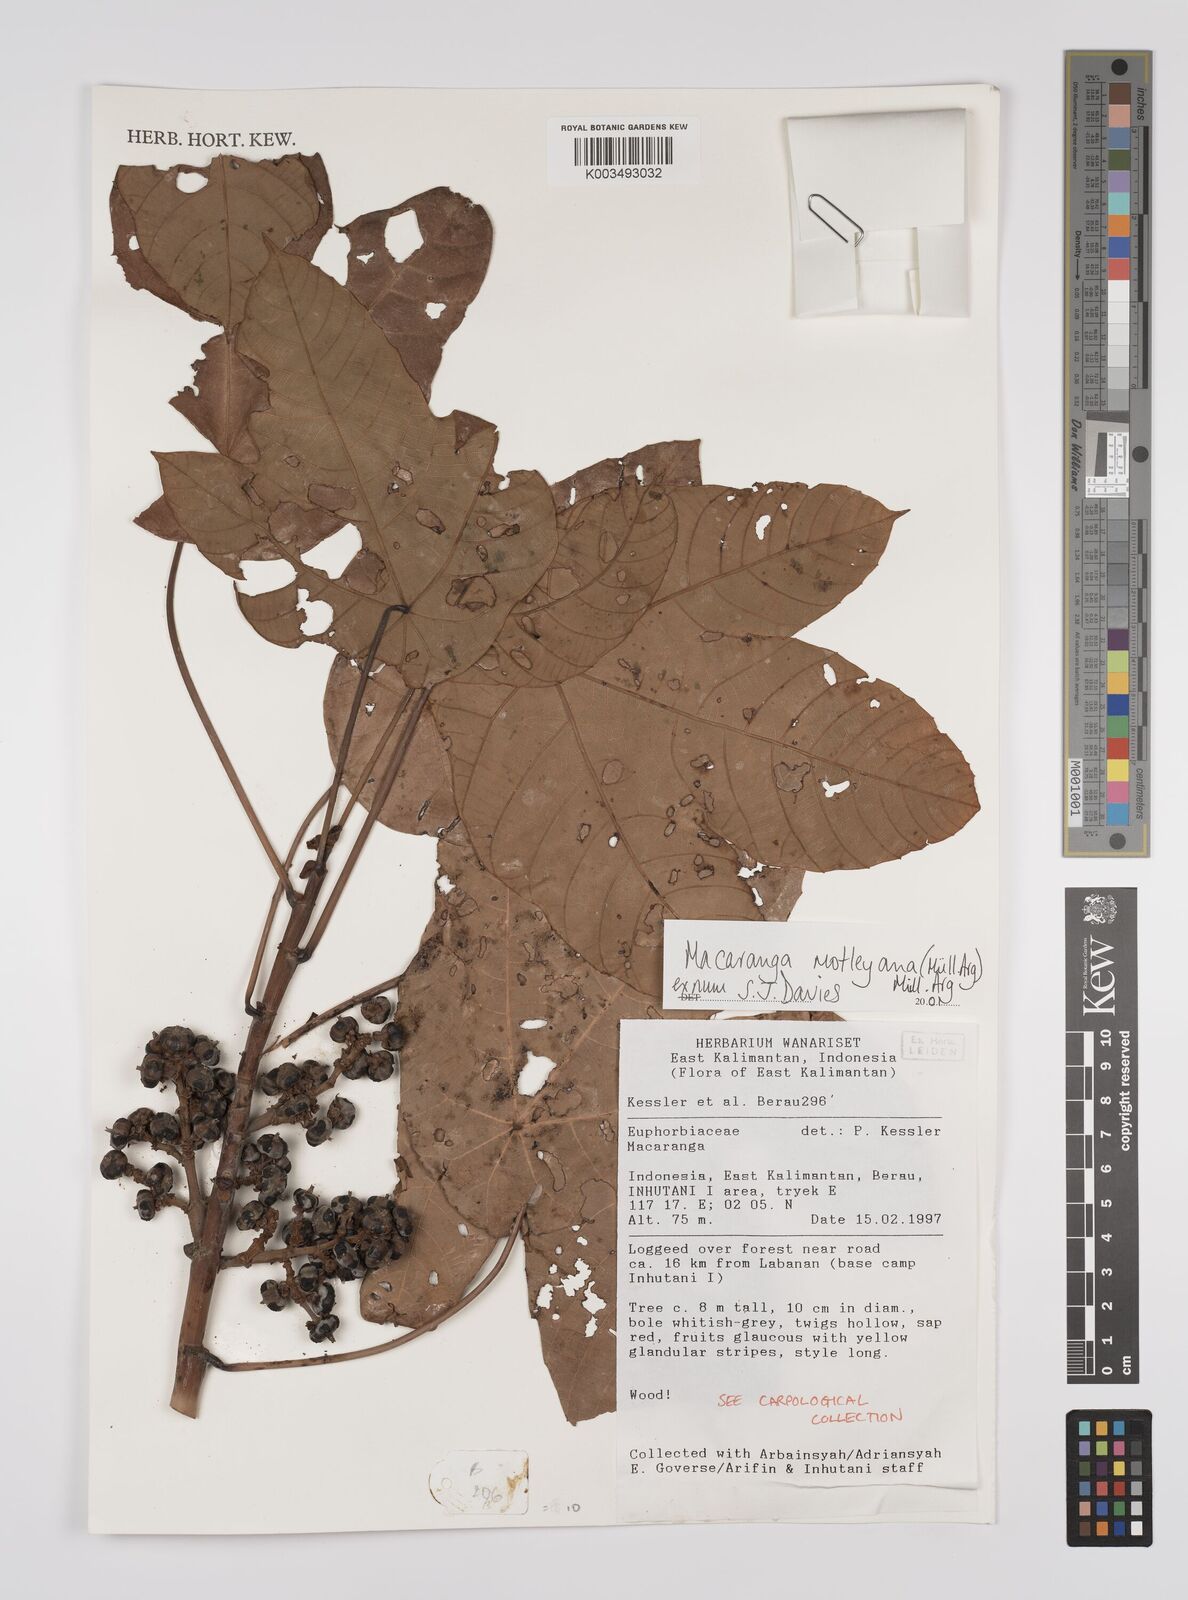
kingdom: Plantae
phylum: Tracheophyta
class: Magnoliopsida
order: Malpighiales
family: Euphorbiaceae
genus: Macaranga
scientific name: Macaranga motleyana
